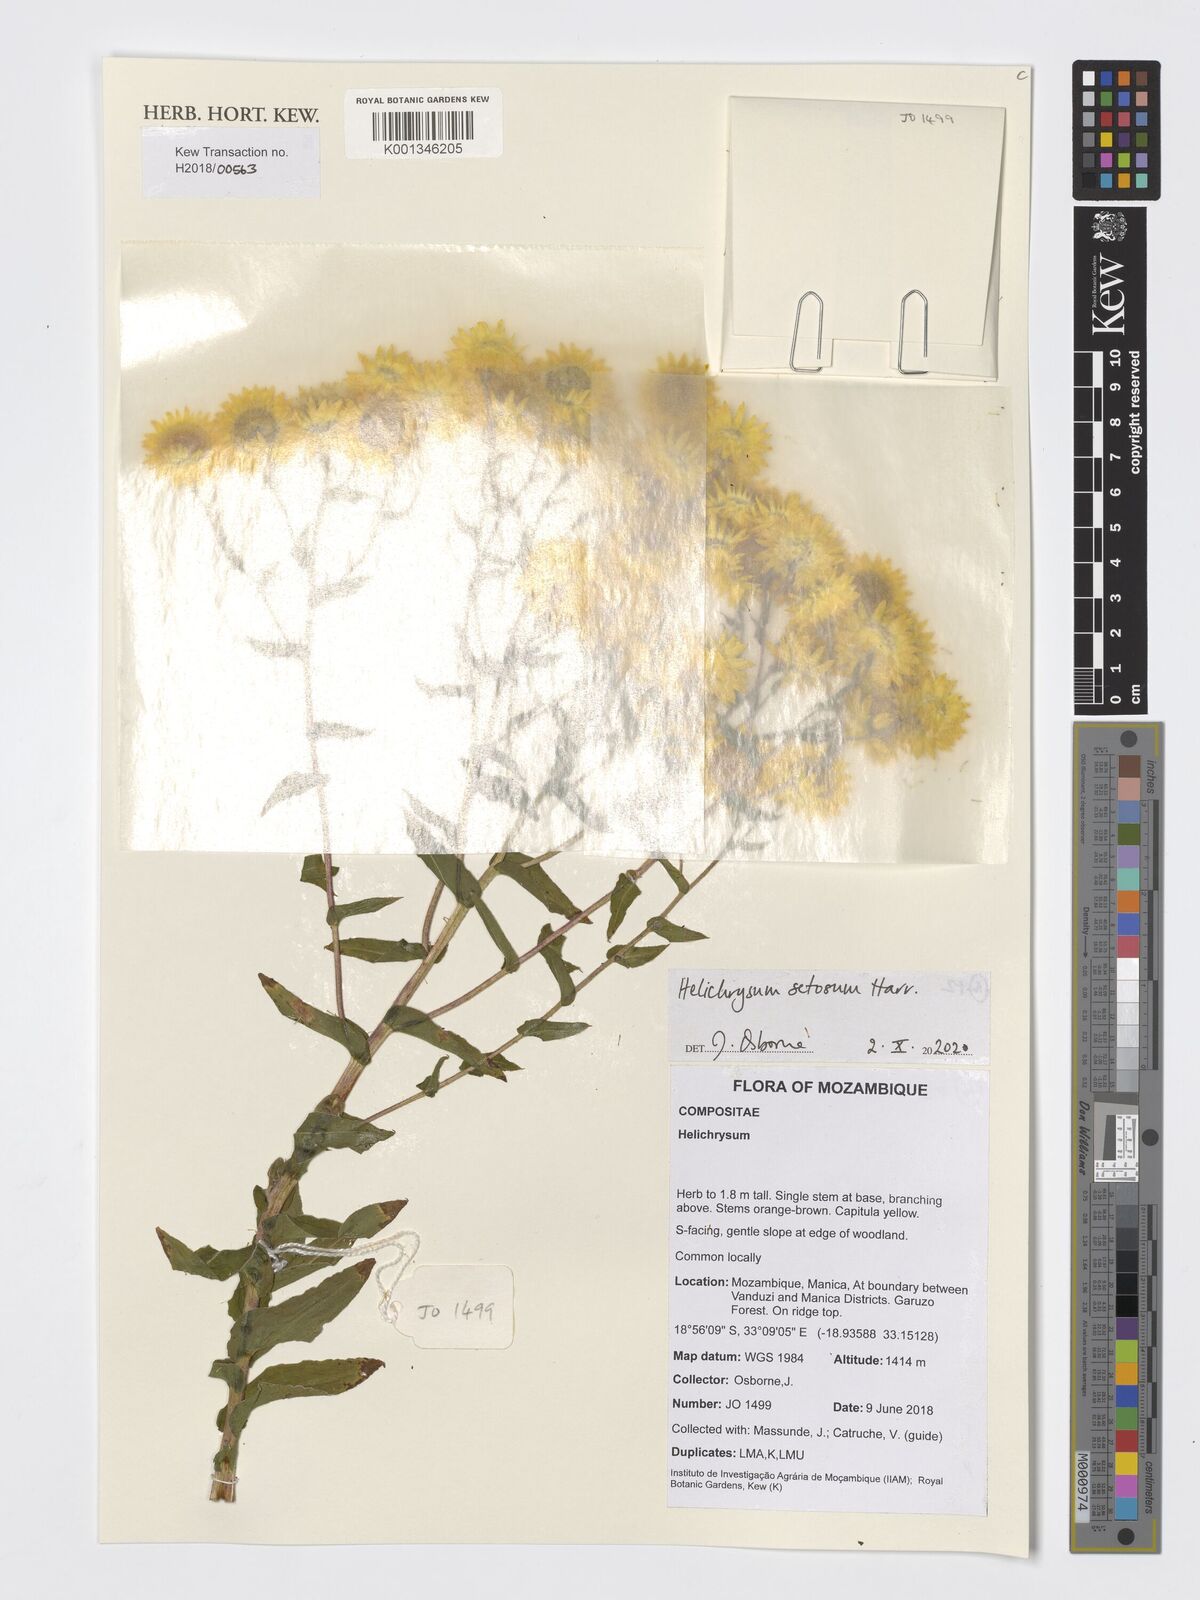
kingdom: Plantae
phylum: Tracheophyta
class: Magnoliopsida
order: Asterales
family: Asteraceae
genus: Helichrysum
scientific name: Helichrysum setosum
